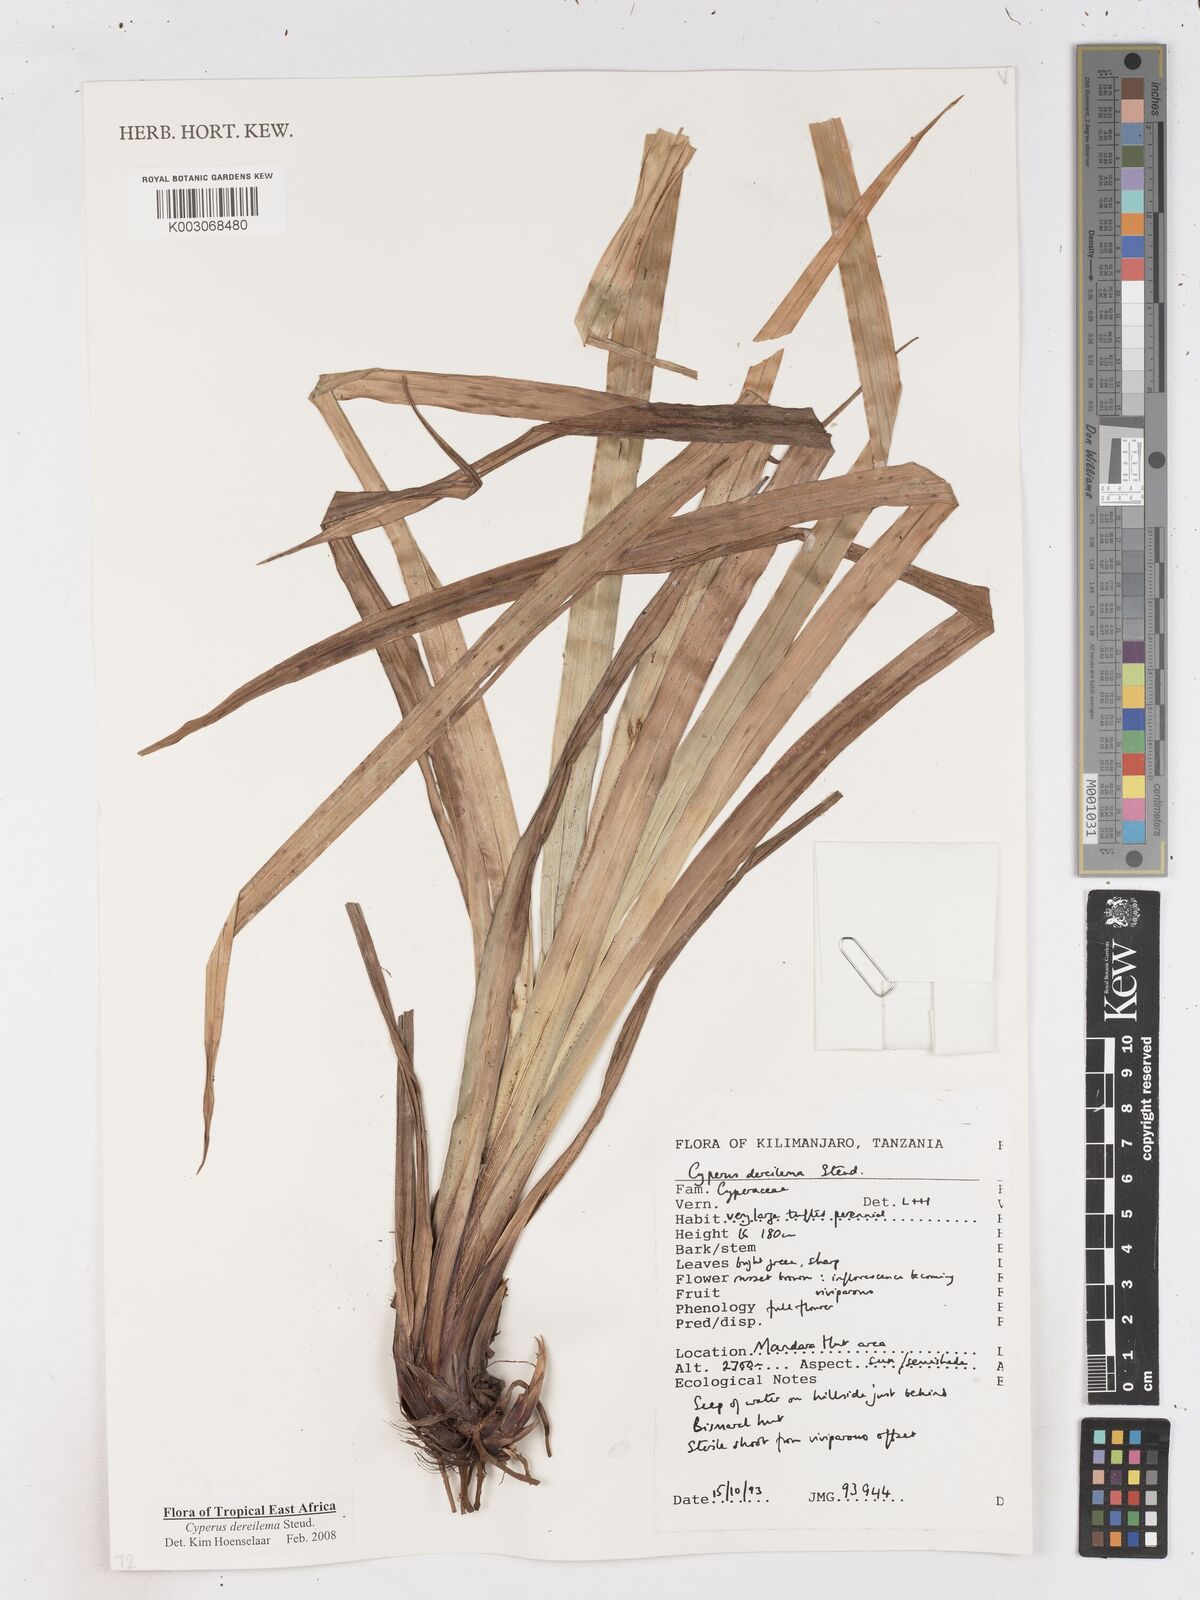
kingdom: Plantae
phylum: Tracheophyta
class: Liliopsida
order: Poales
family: Cyperaceae
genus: Cyperus
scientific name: Cyperus derreilema
